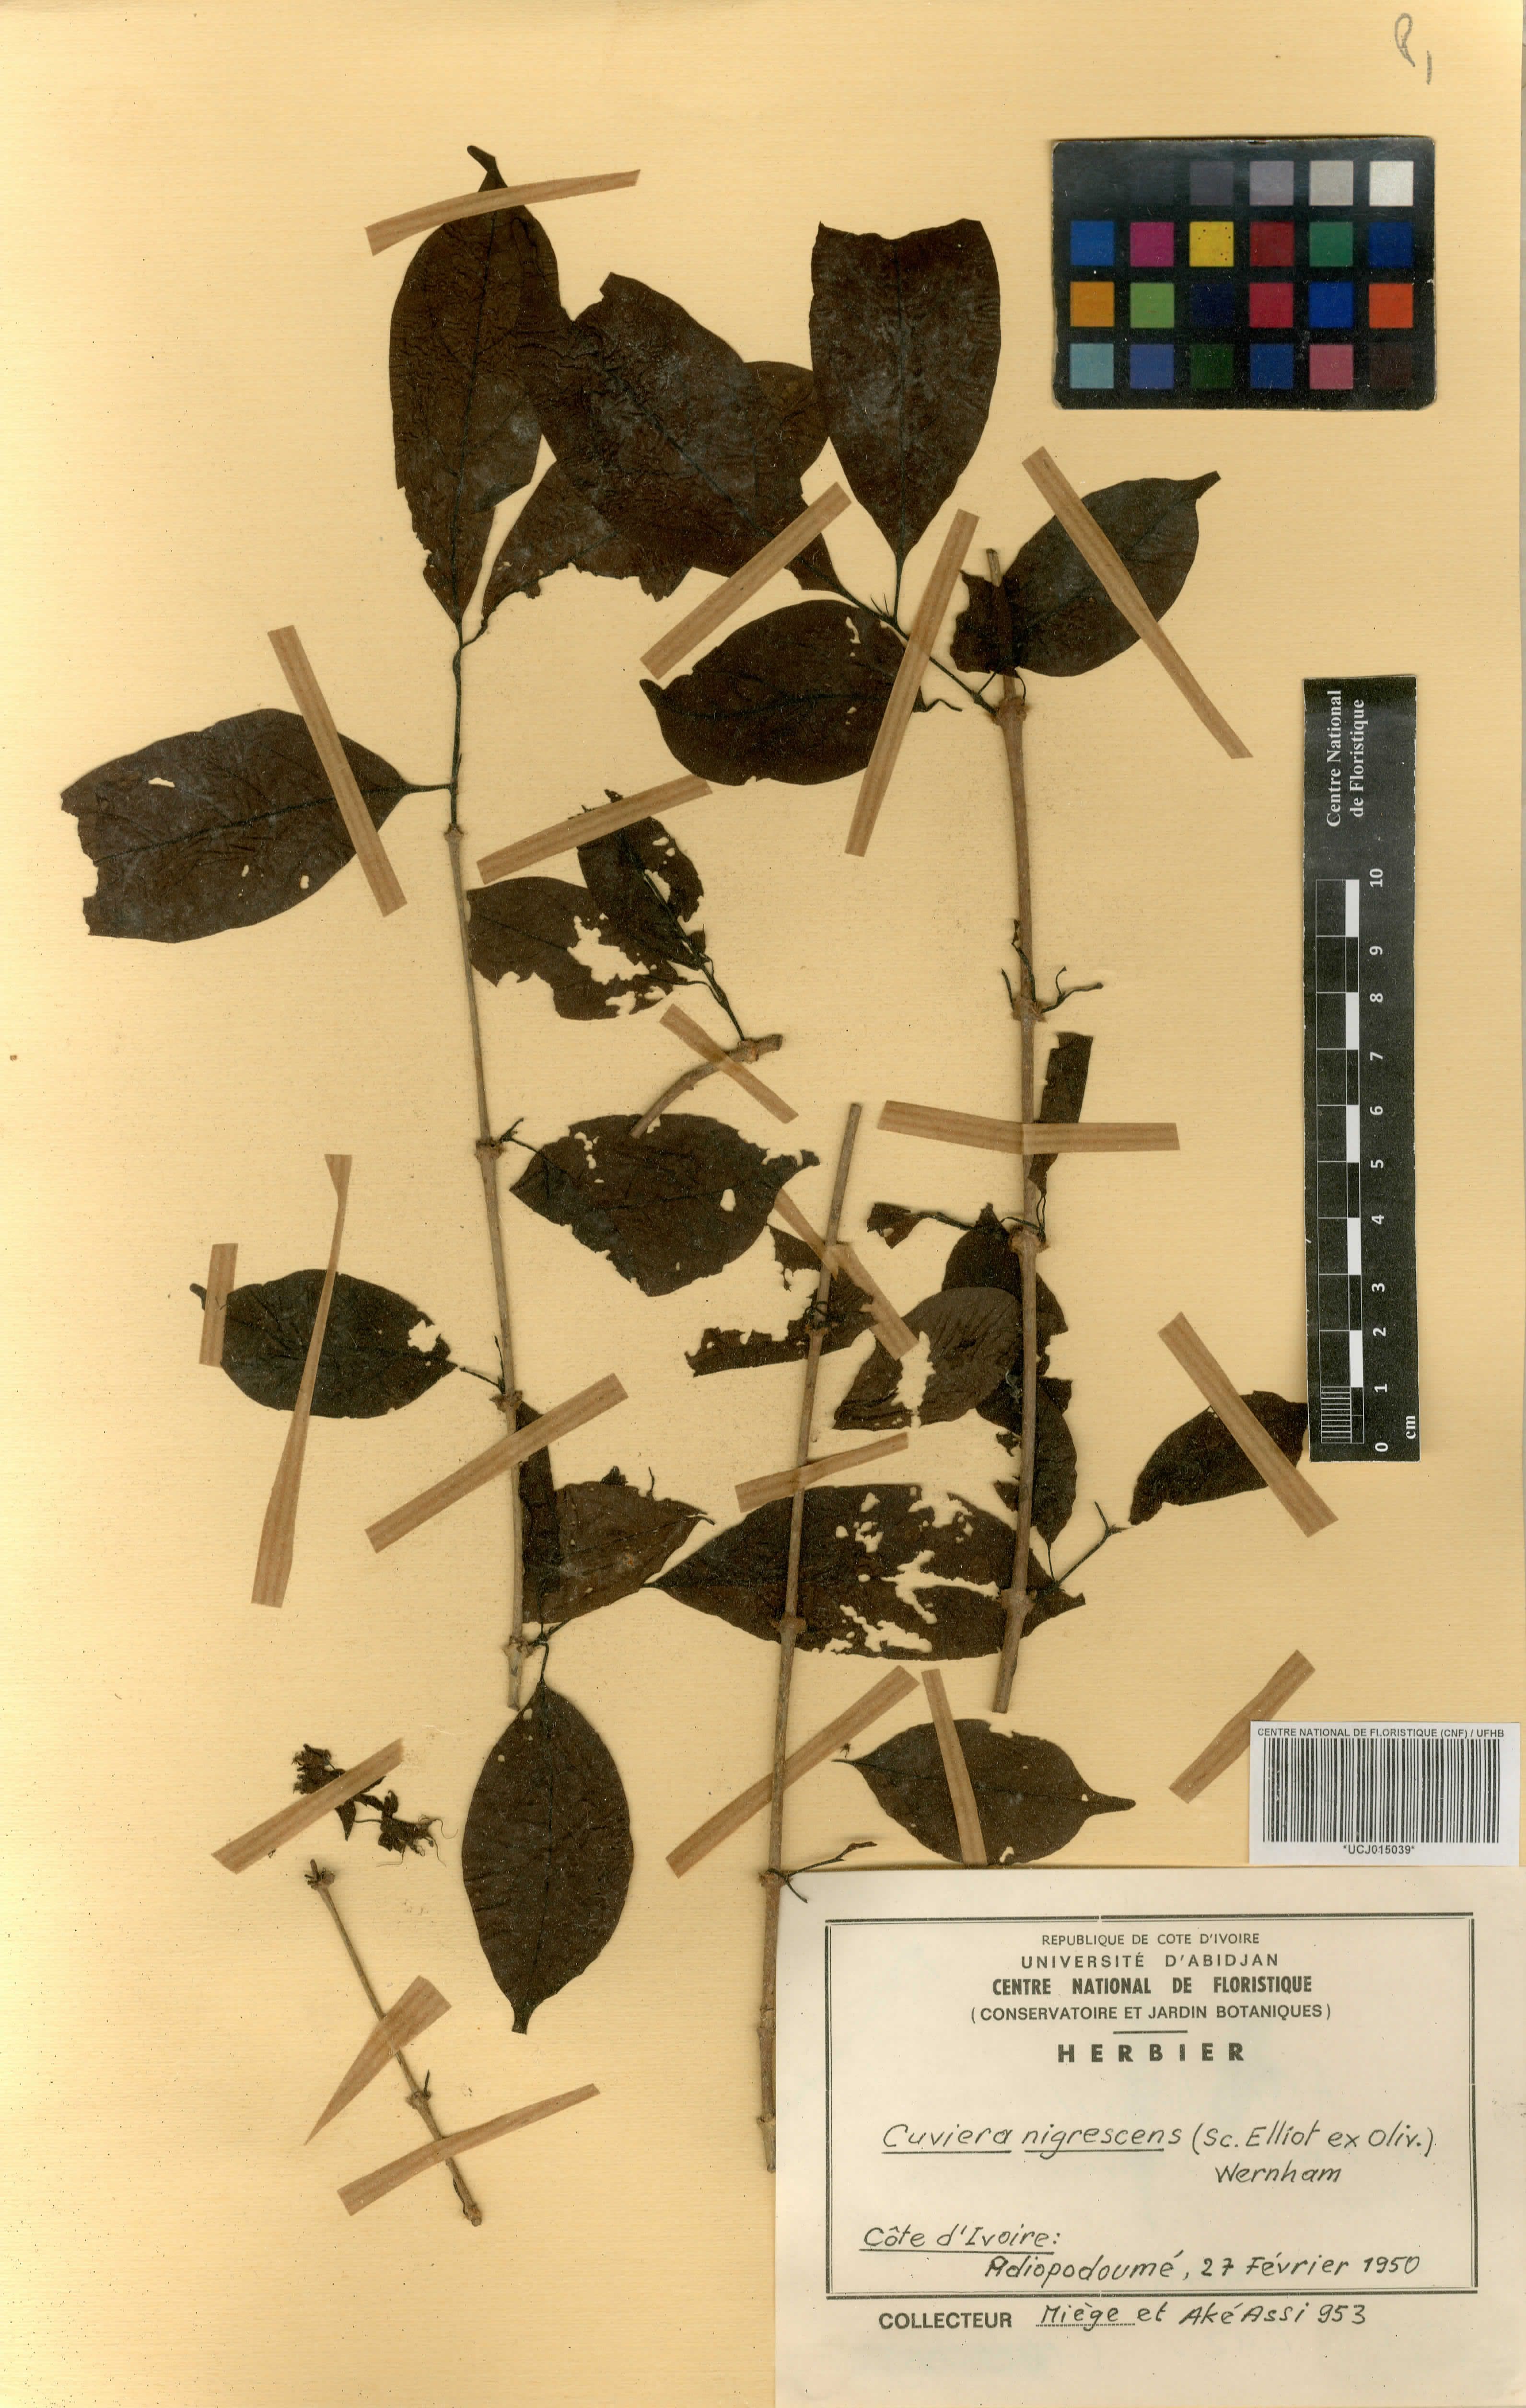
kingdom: Plantae
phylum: Tracheophyta
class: Magnoliopsida
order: Gentianales
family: Rubiaceae
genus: Cuviera
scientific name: Cuviera nigrescens
